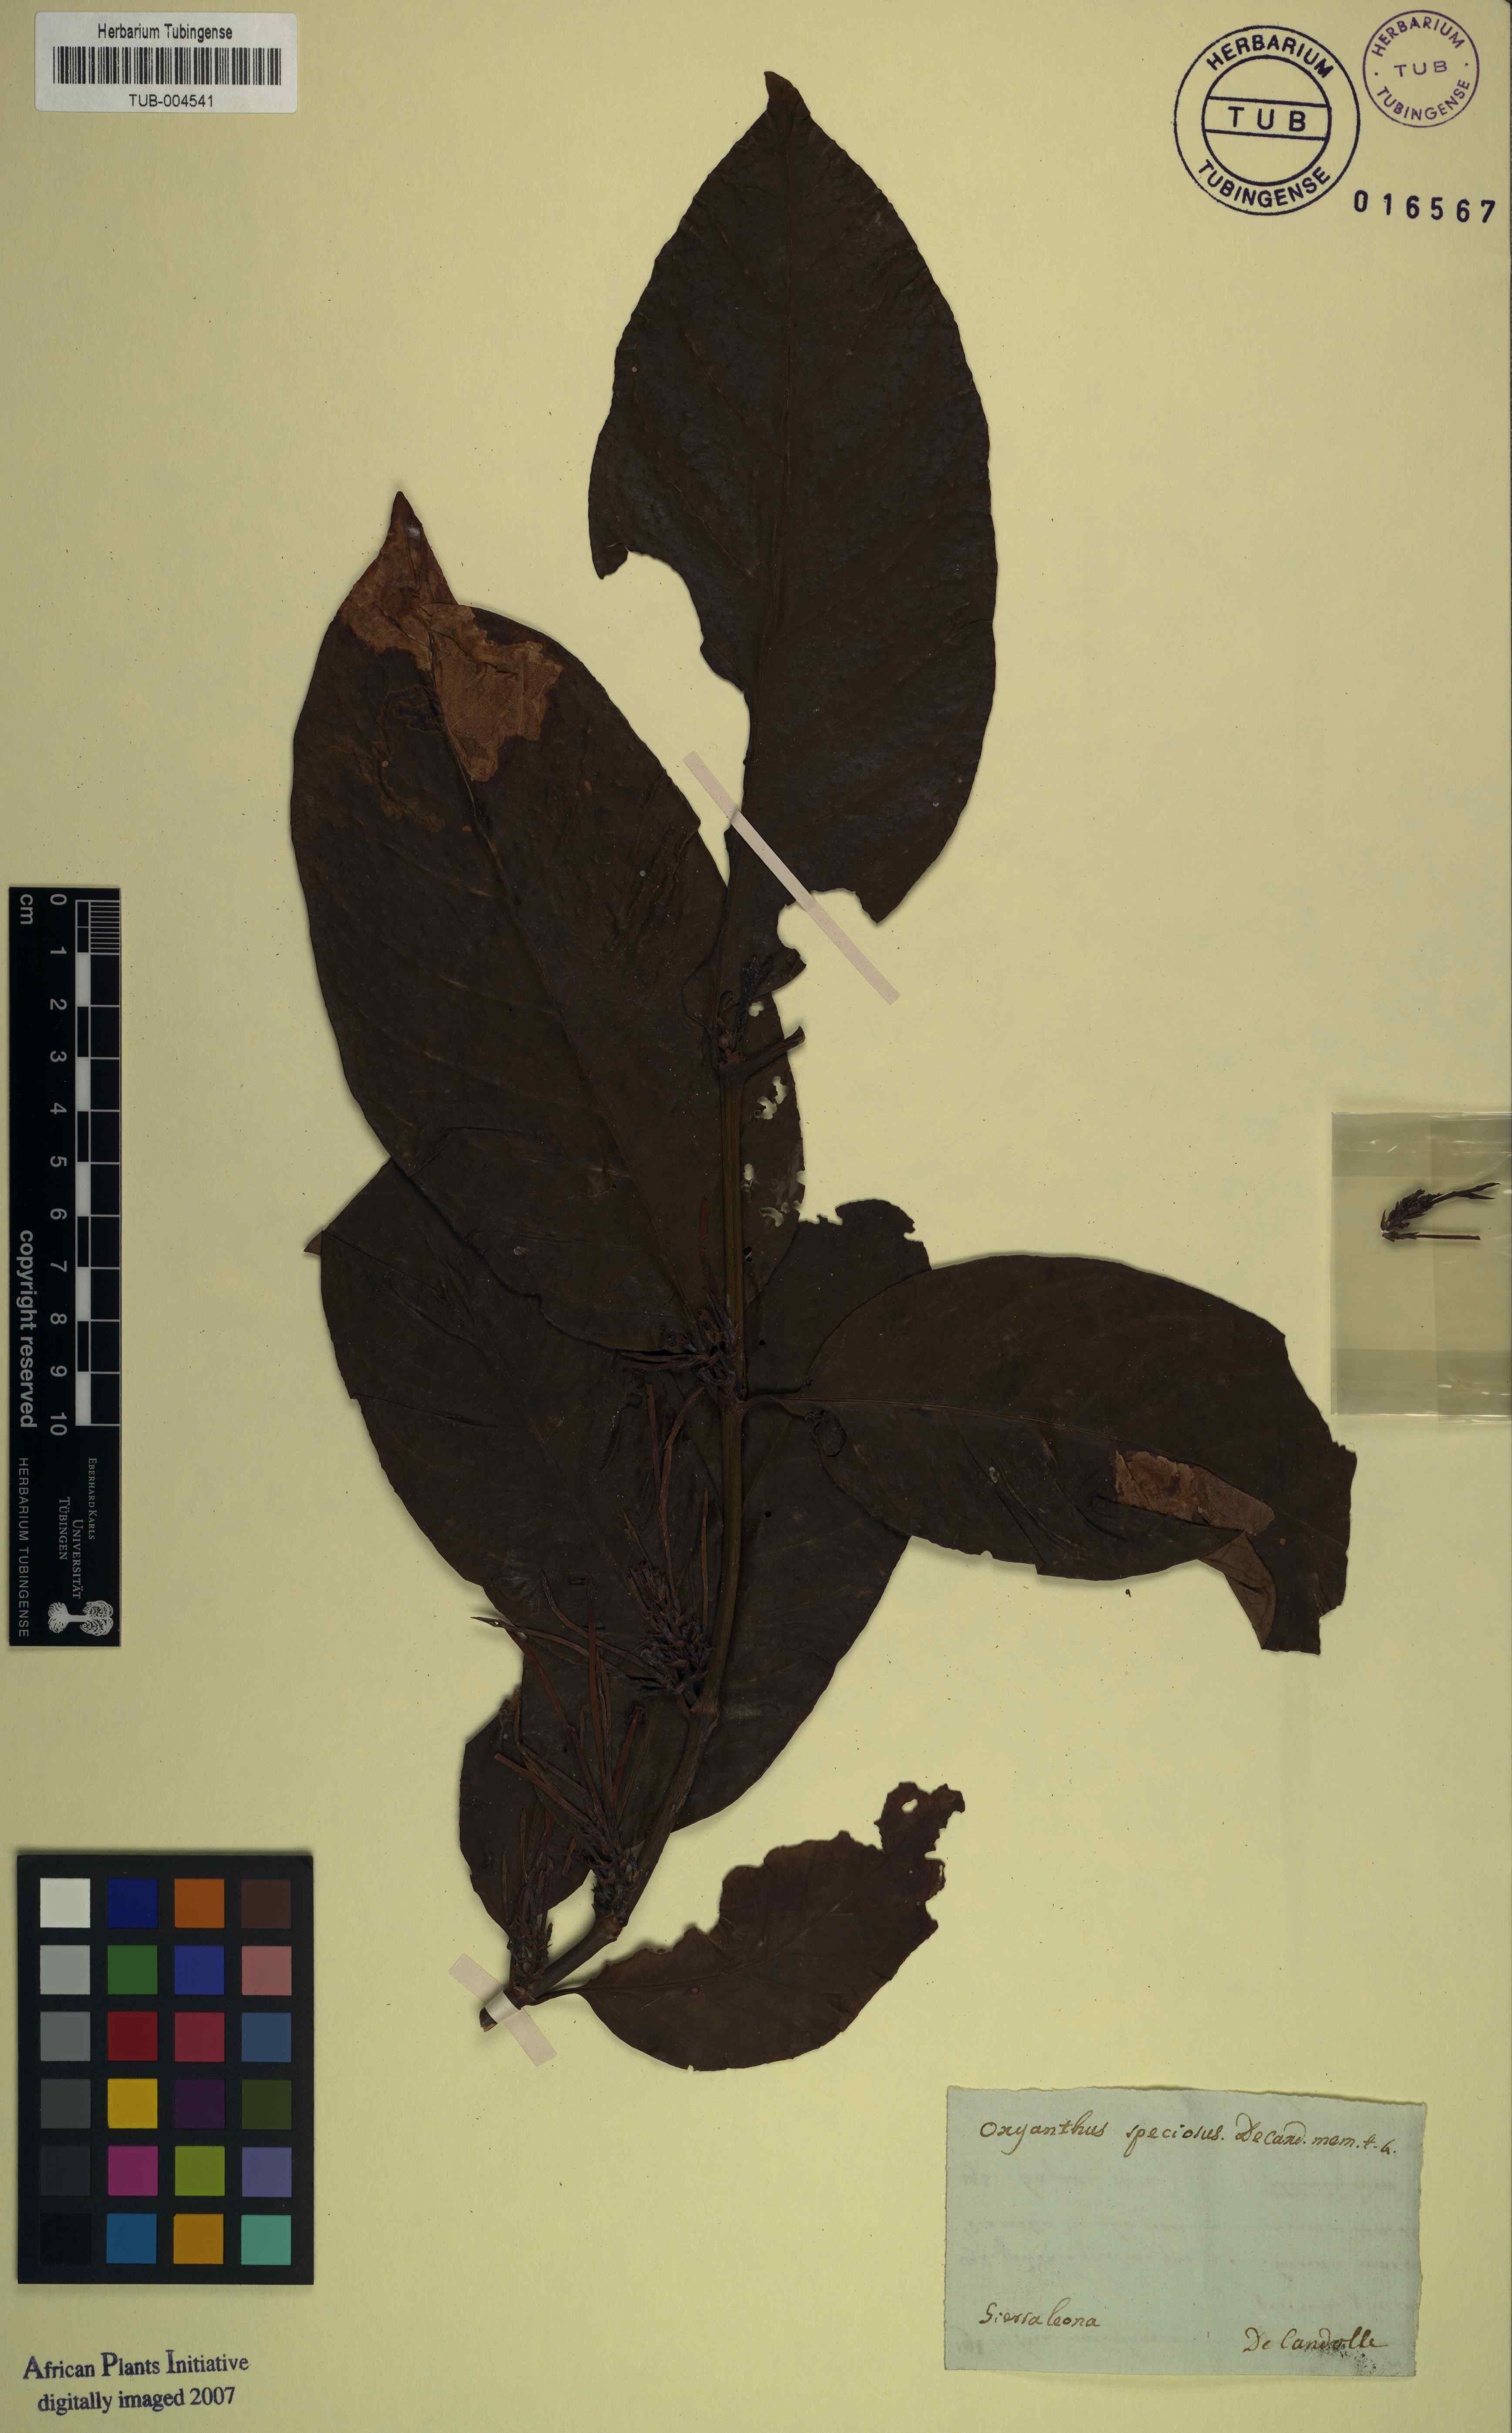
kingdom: Plantae
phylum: Tracheophyta
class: Magnoliopsida
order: Gentianales
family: Rubiaceae
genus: Oxyanthus
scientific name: Oxyanthus speciosus
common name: Whipstick loquat
